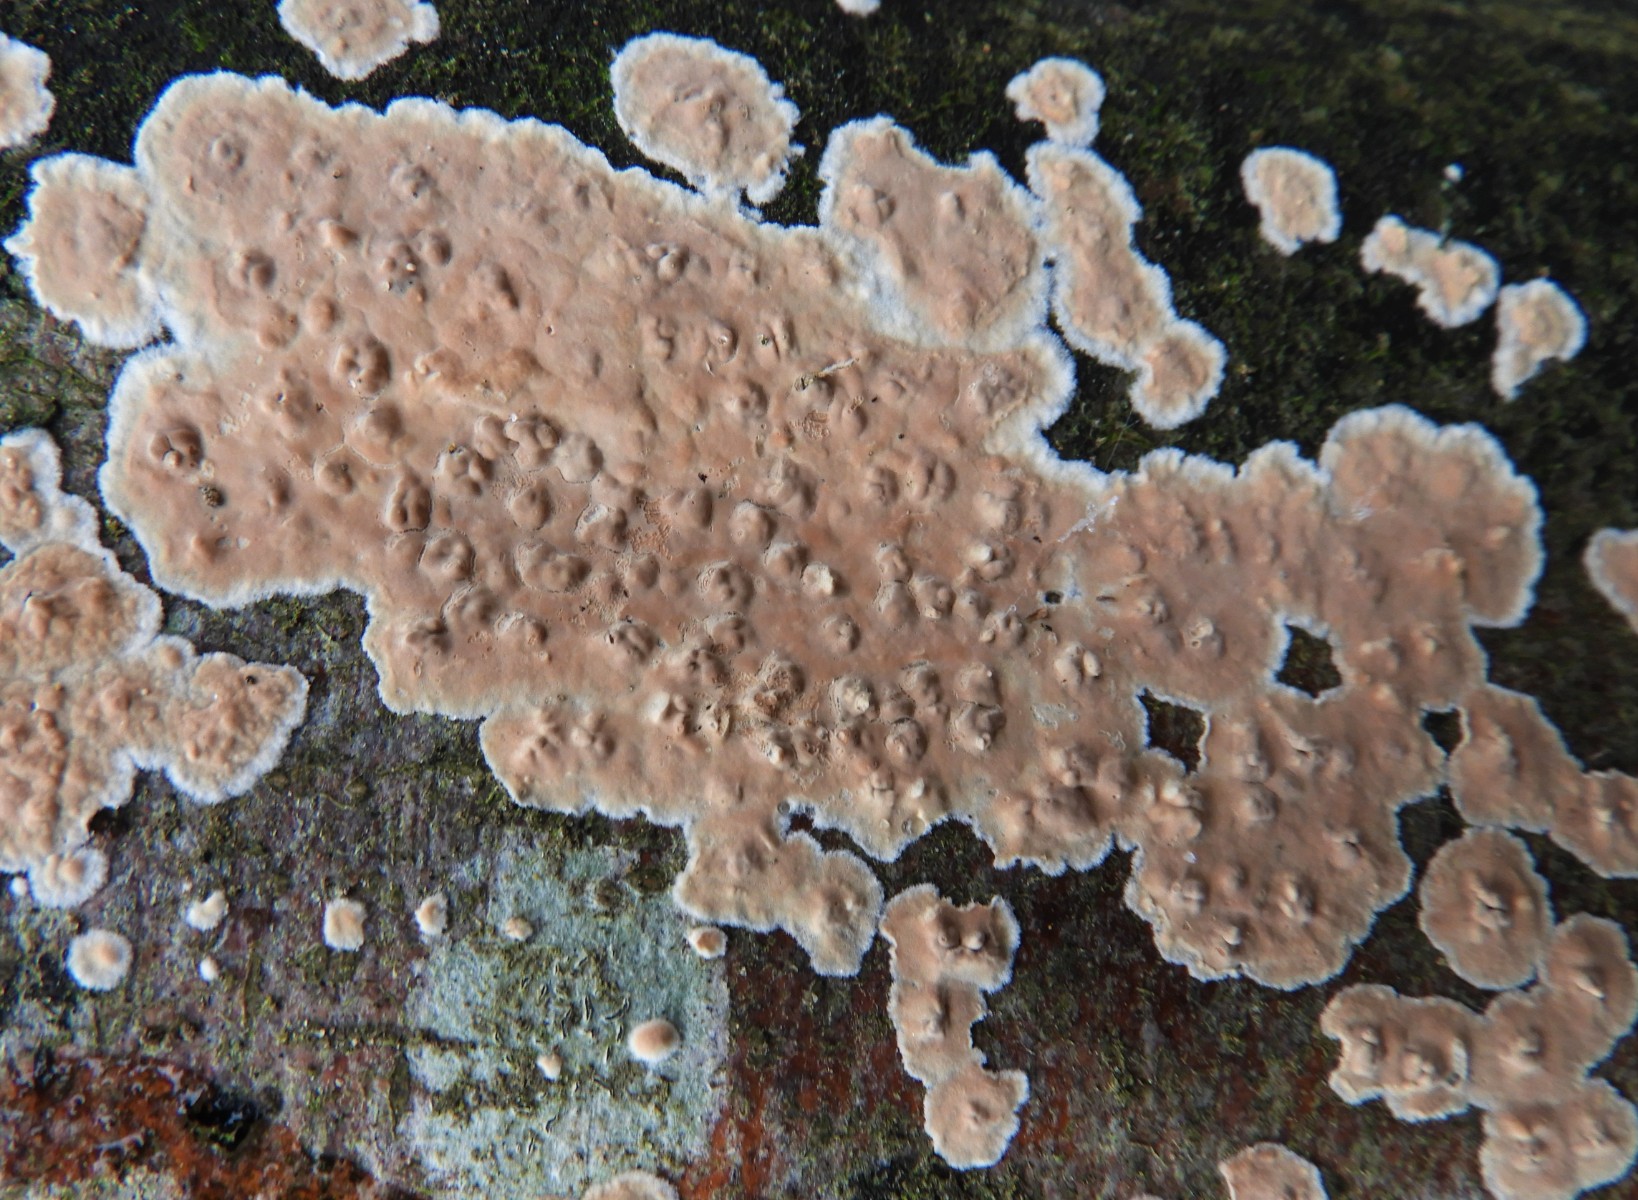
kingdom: Fungi
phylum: Basidiomycota
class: Agaricomycetes
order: Russulales
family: Peniophoraceae
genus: Peniophora
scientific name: Peniophora incarnata
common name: laksefarvet voksskind
